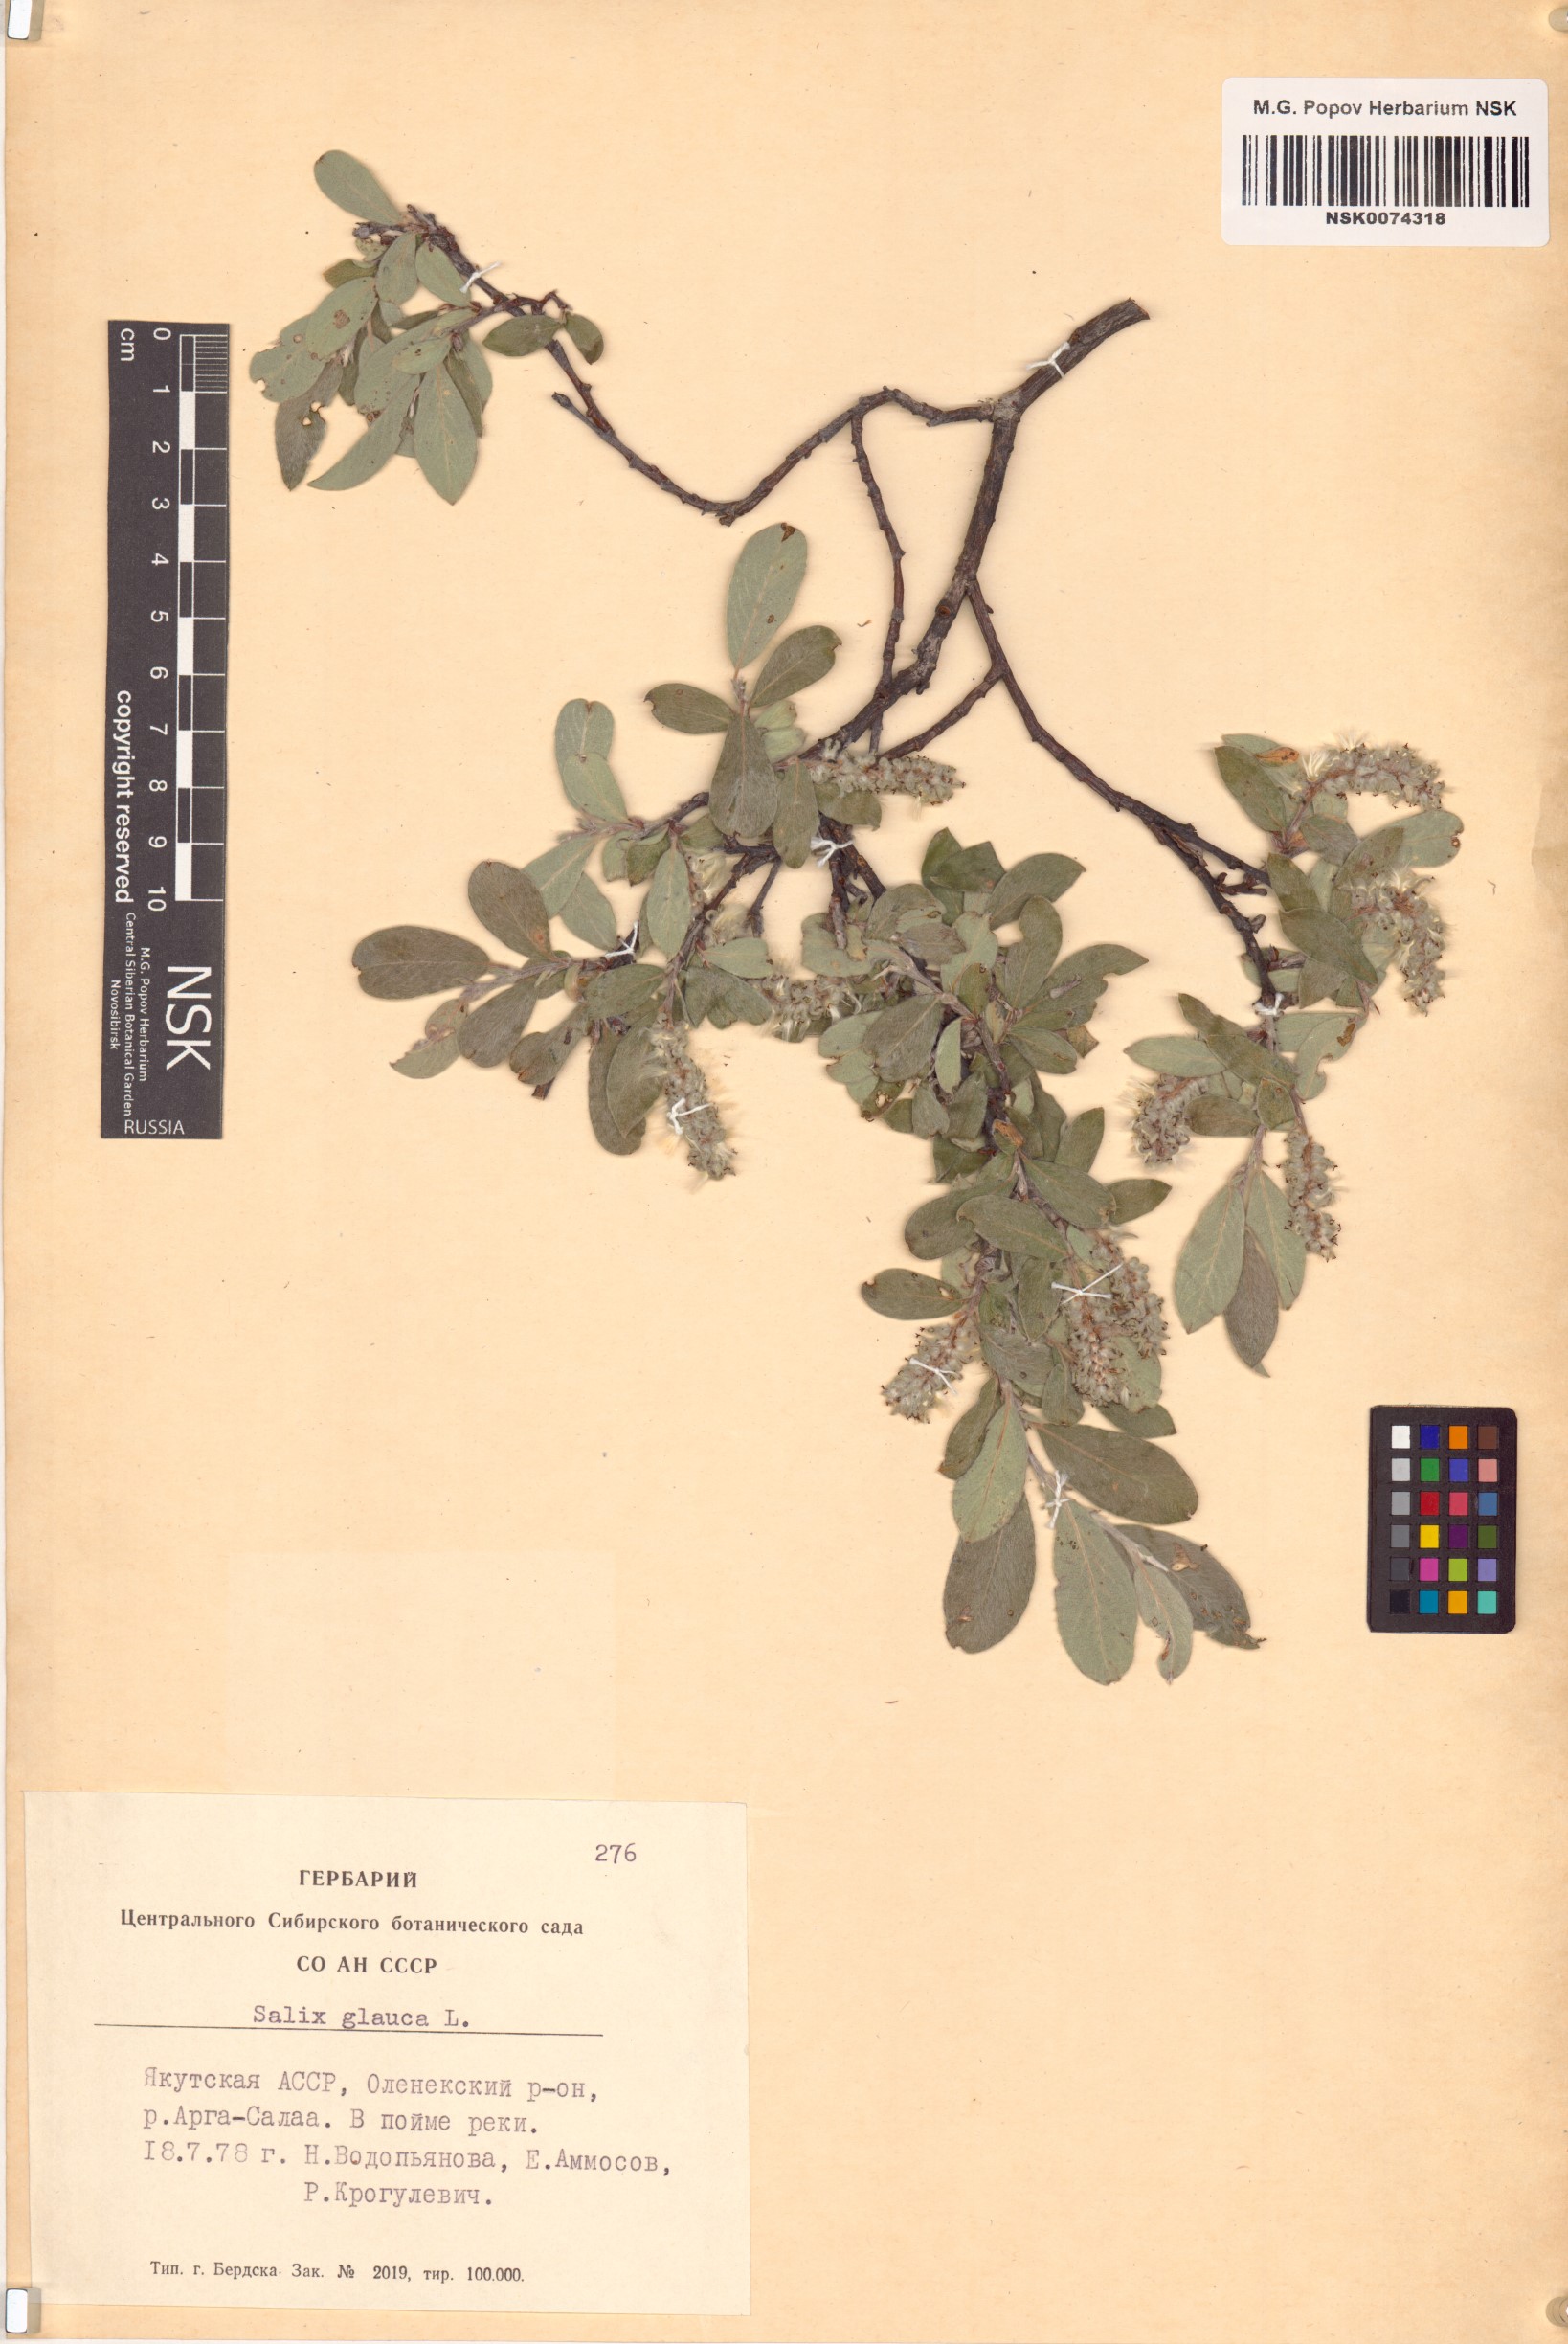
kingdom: Plantae
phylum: Tracheophyta
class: Magnoliopsida
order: Malpighiales
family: Salicaceae
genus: Salix
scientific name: Salix glauca
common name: Glaucous willow
